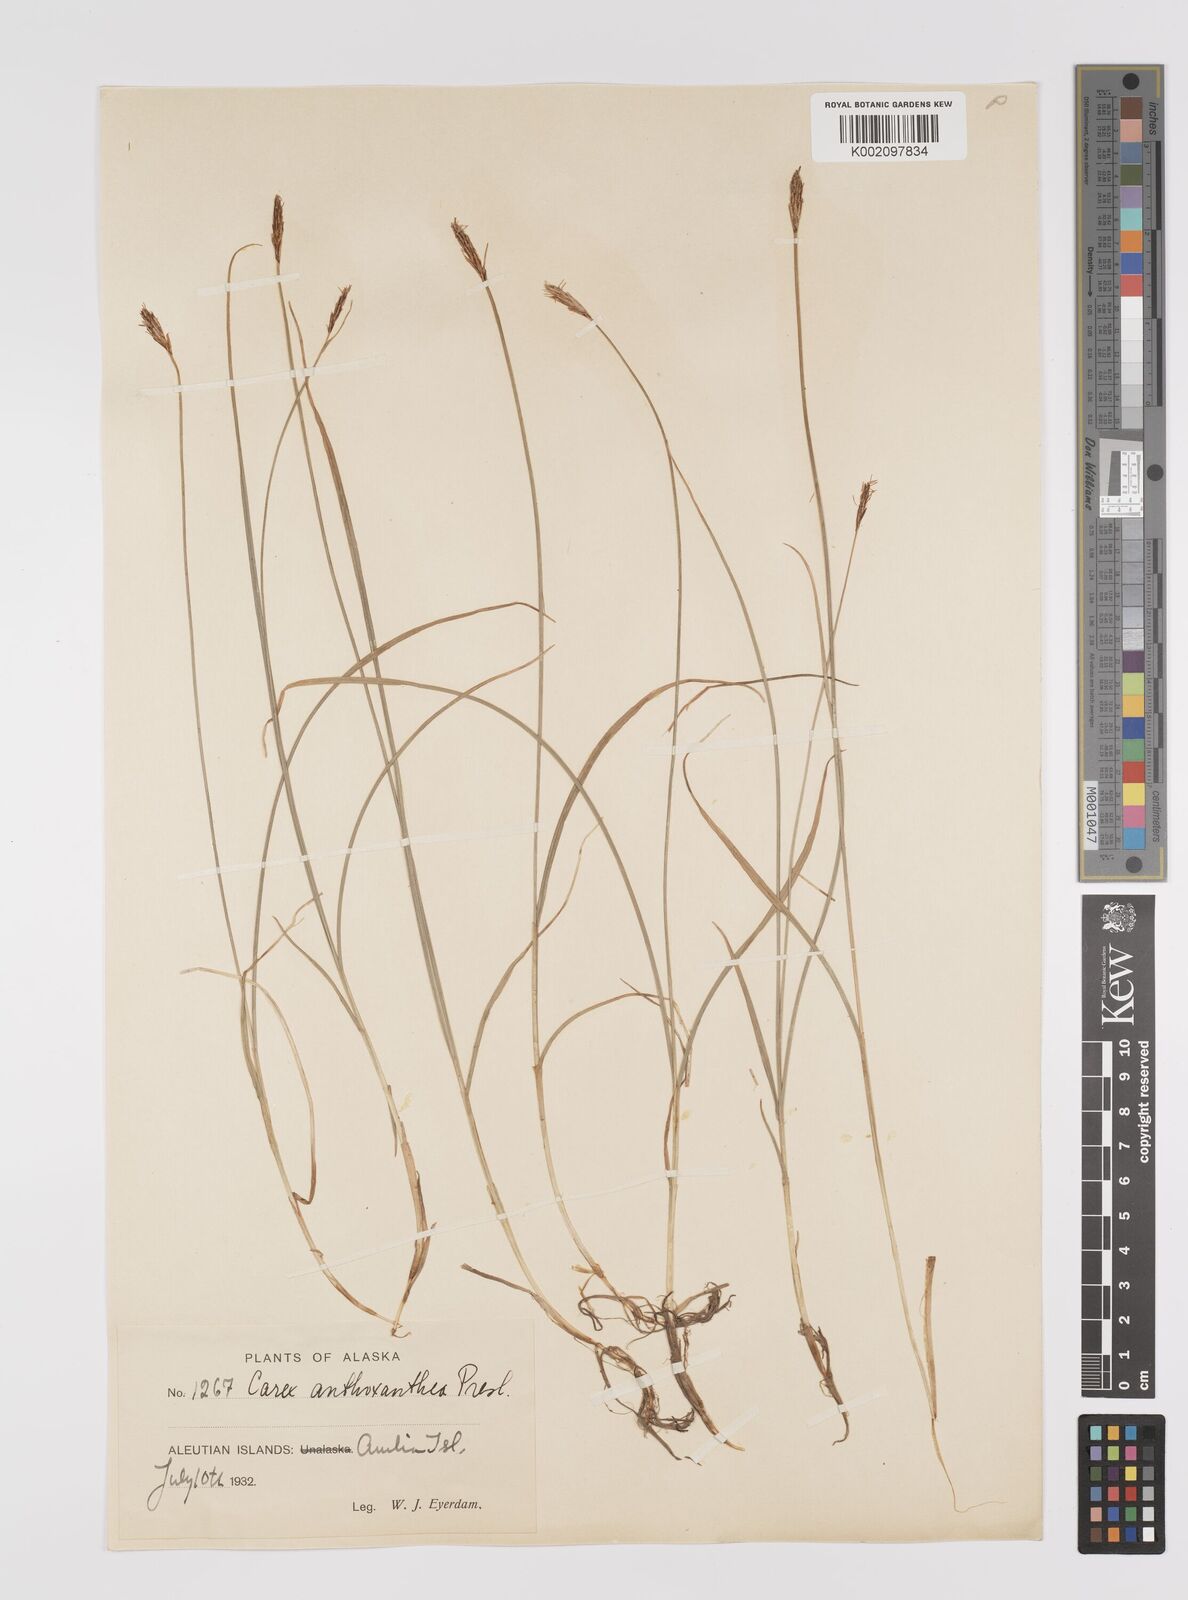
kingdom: Plantae
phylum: Tracheophyta
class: Liliopsida
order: Poales
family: Cyperaceae
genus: Carex
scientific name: Carex anthoxanthea
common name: Grassy-slope arctic sedge
